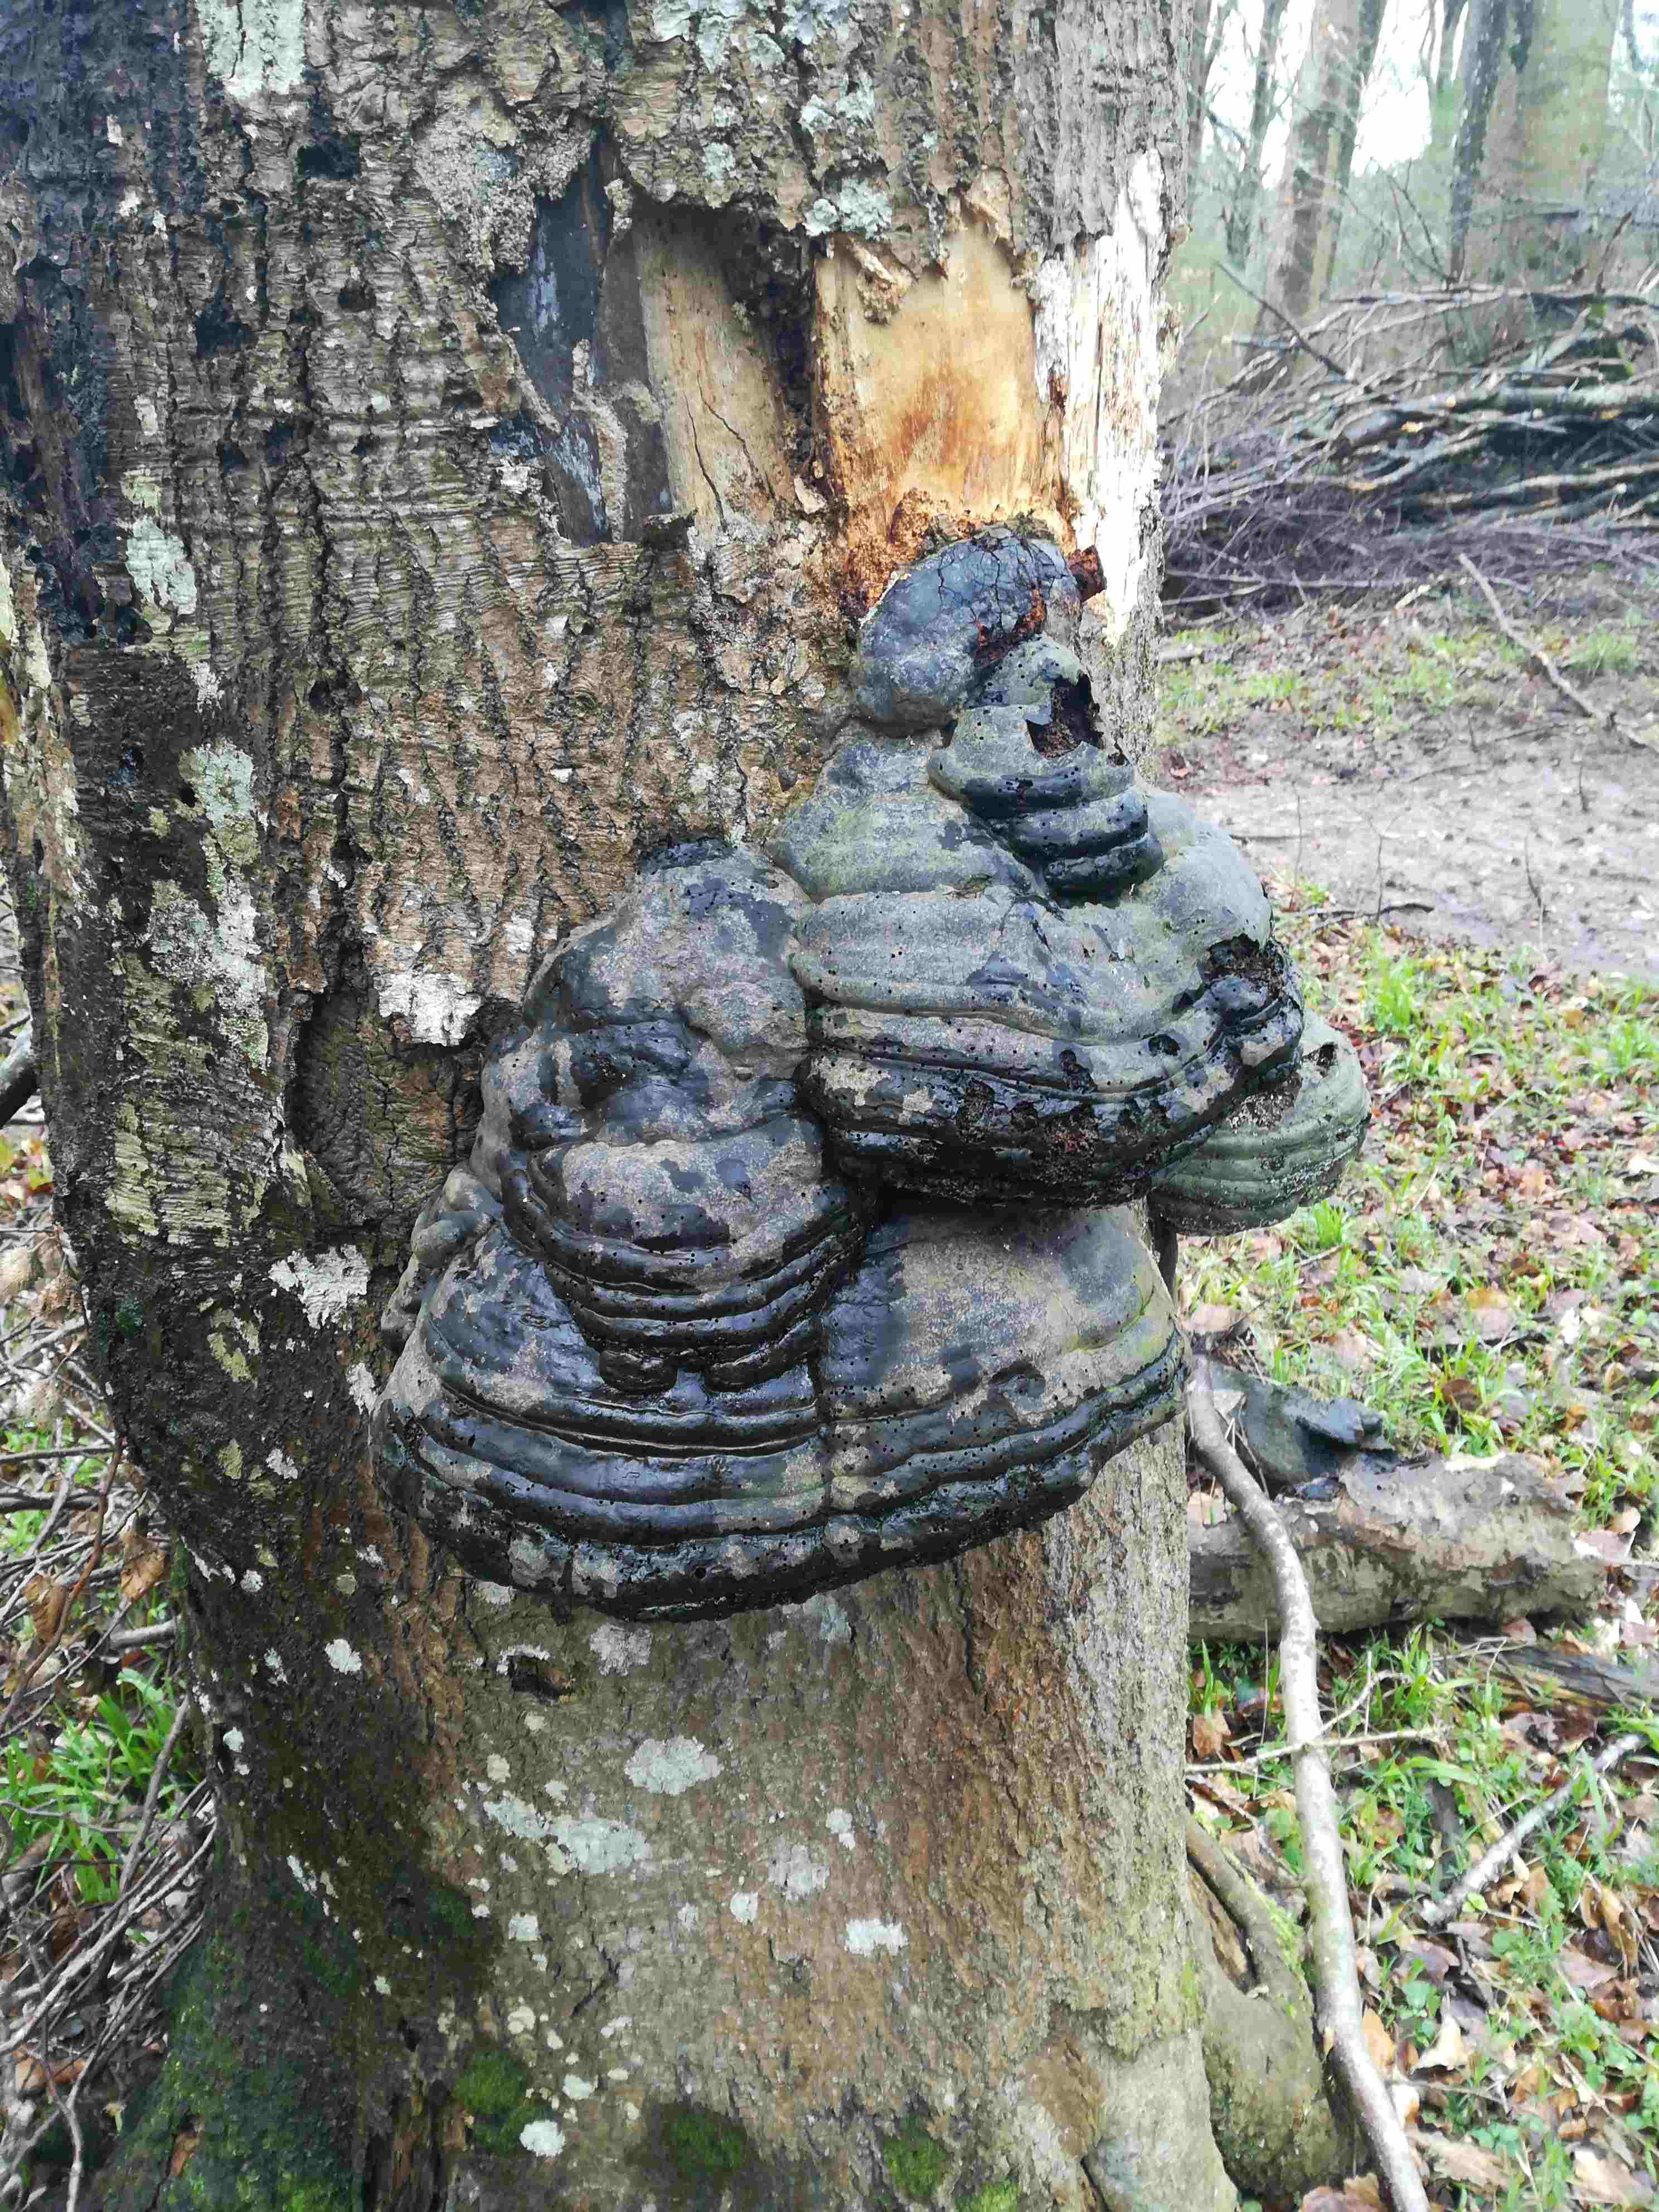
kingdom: Fungi
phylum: Basidiomycota
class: Agaricomycetes
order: Polyporales
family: Polyporaceae
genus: Fomes
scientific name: Fomes fomentarius
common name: tøndersvamp
